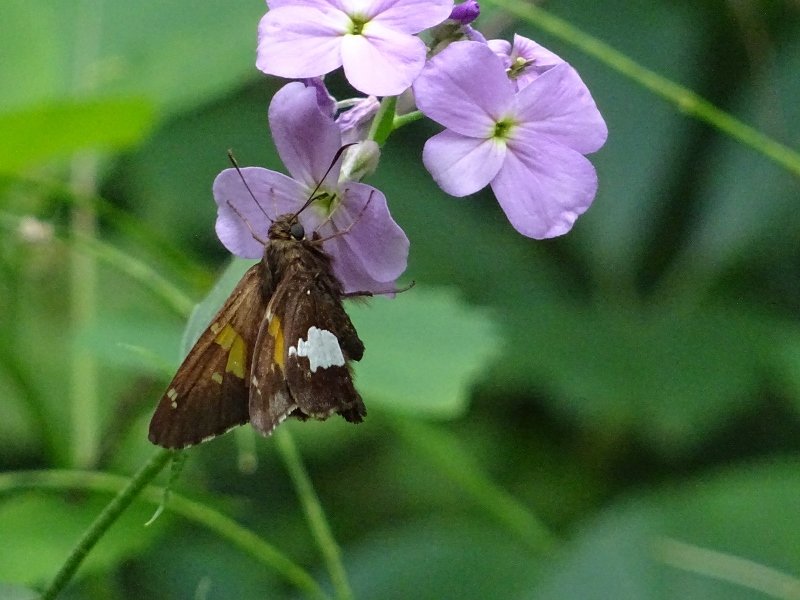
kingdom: Animalia
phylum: Arthropoda
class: Insecta
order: Lepidoptera
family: Hesperiidae
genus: Epargyreus
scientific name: Epargyreus clarus
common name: Silver-spotted Skipper
